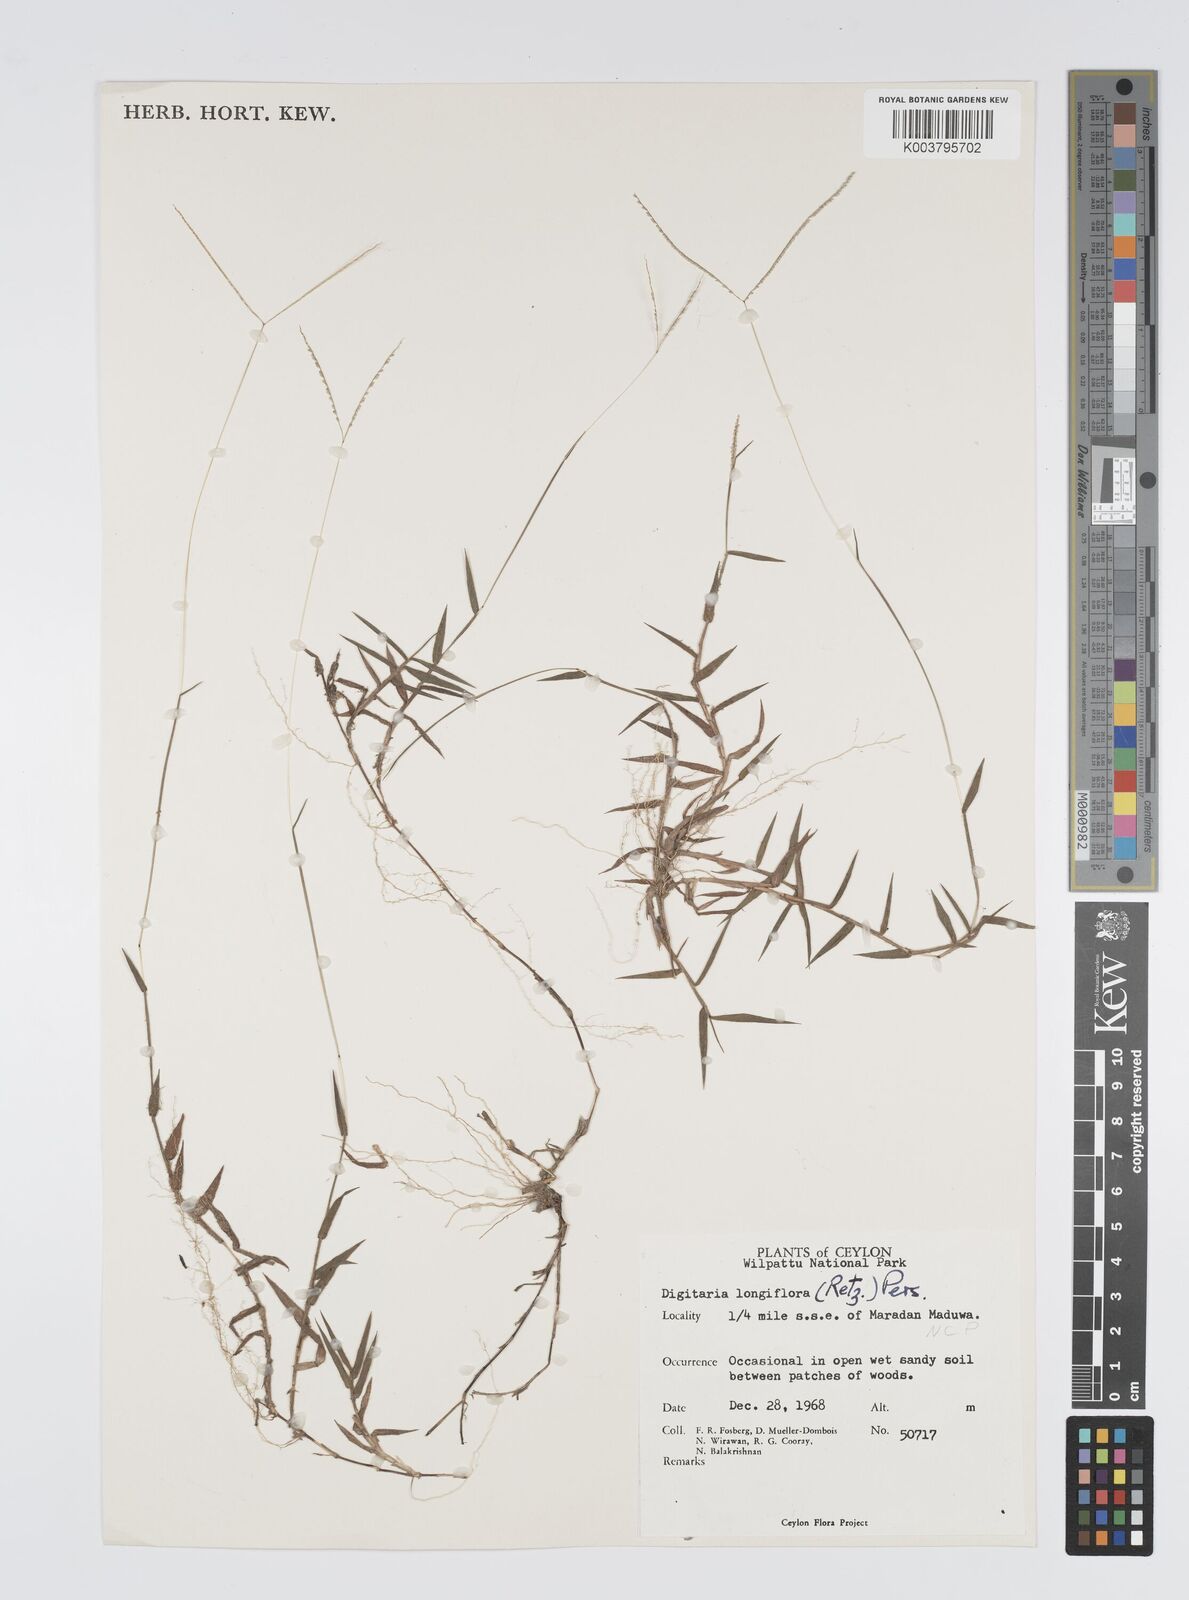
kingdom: Plantae
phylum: Tracheophyta
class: Liliopsida
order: Poales
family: Poaceae
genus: Digitaria
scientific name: Digitaria longiflora
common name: Wire crabgrass
